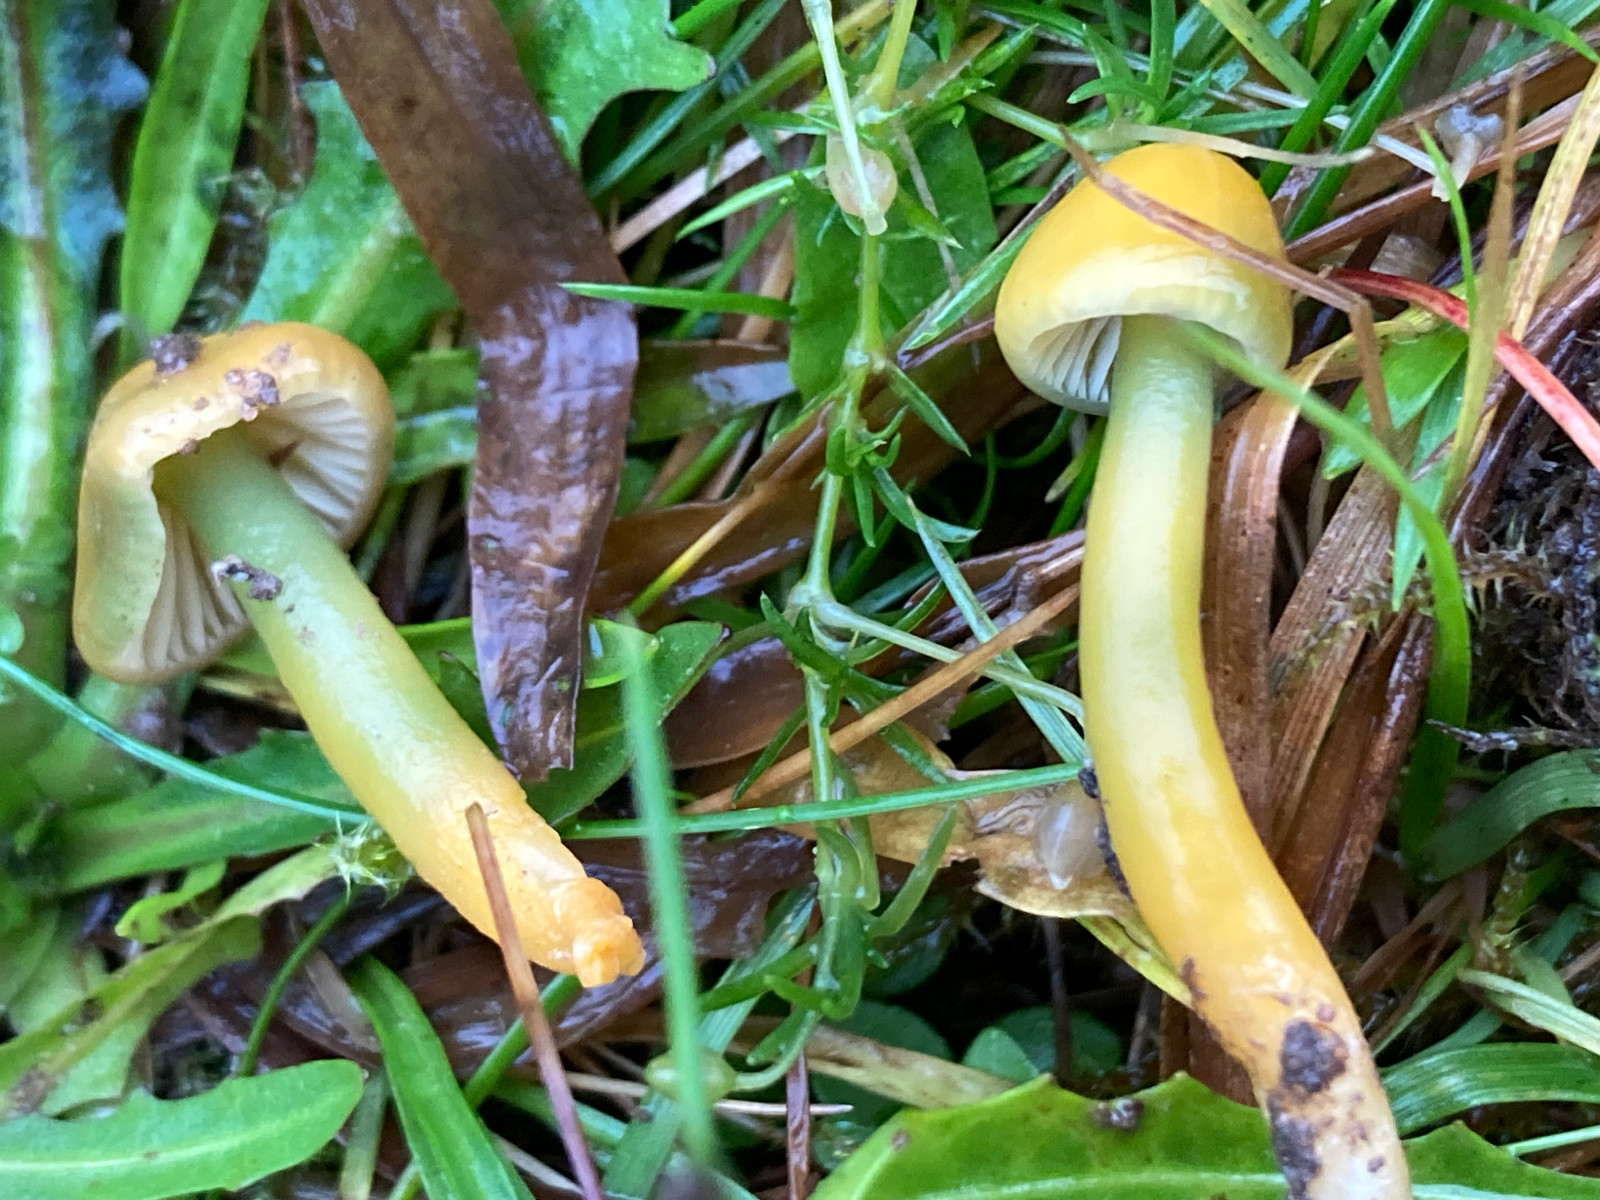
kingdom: Fungi
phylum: Basidiomycota
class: Agaricomycetes
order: Agaricales
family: Hygrophoraceae
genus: Gliophorus
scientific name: Gliophorus psittacinus
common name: papegøje-vokshat
